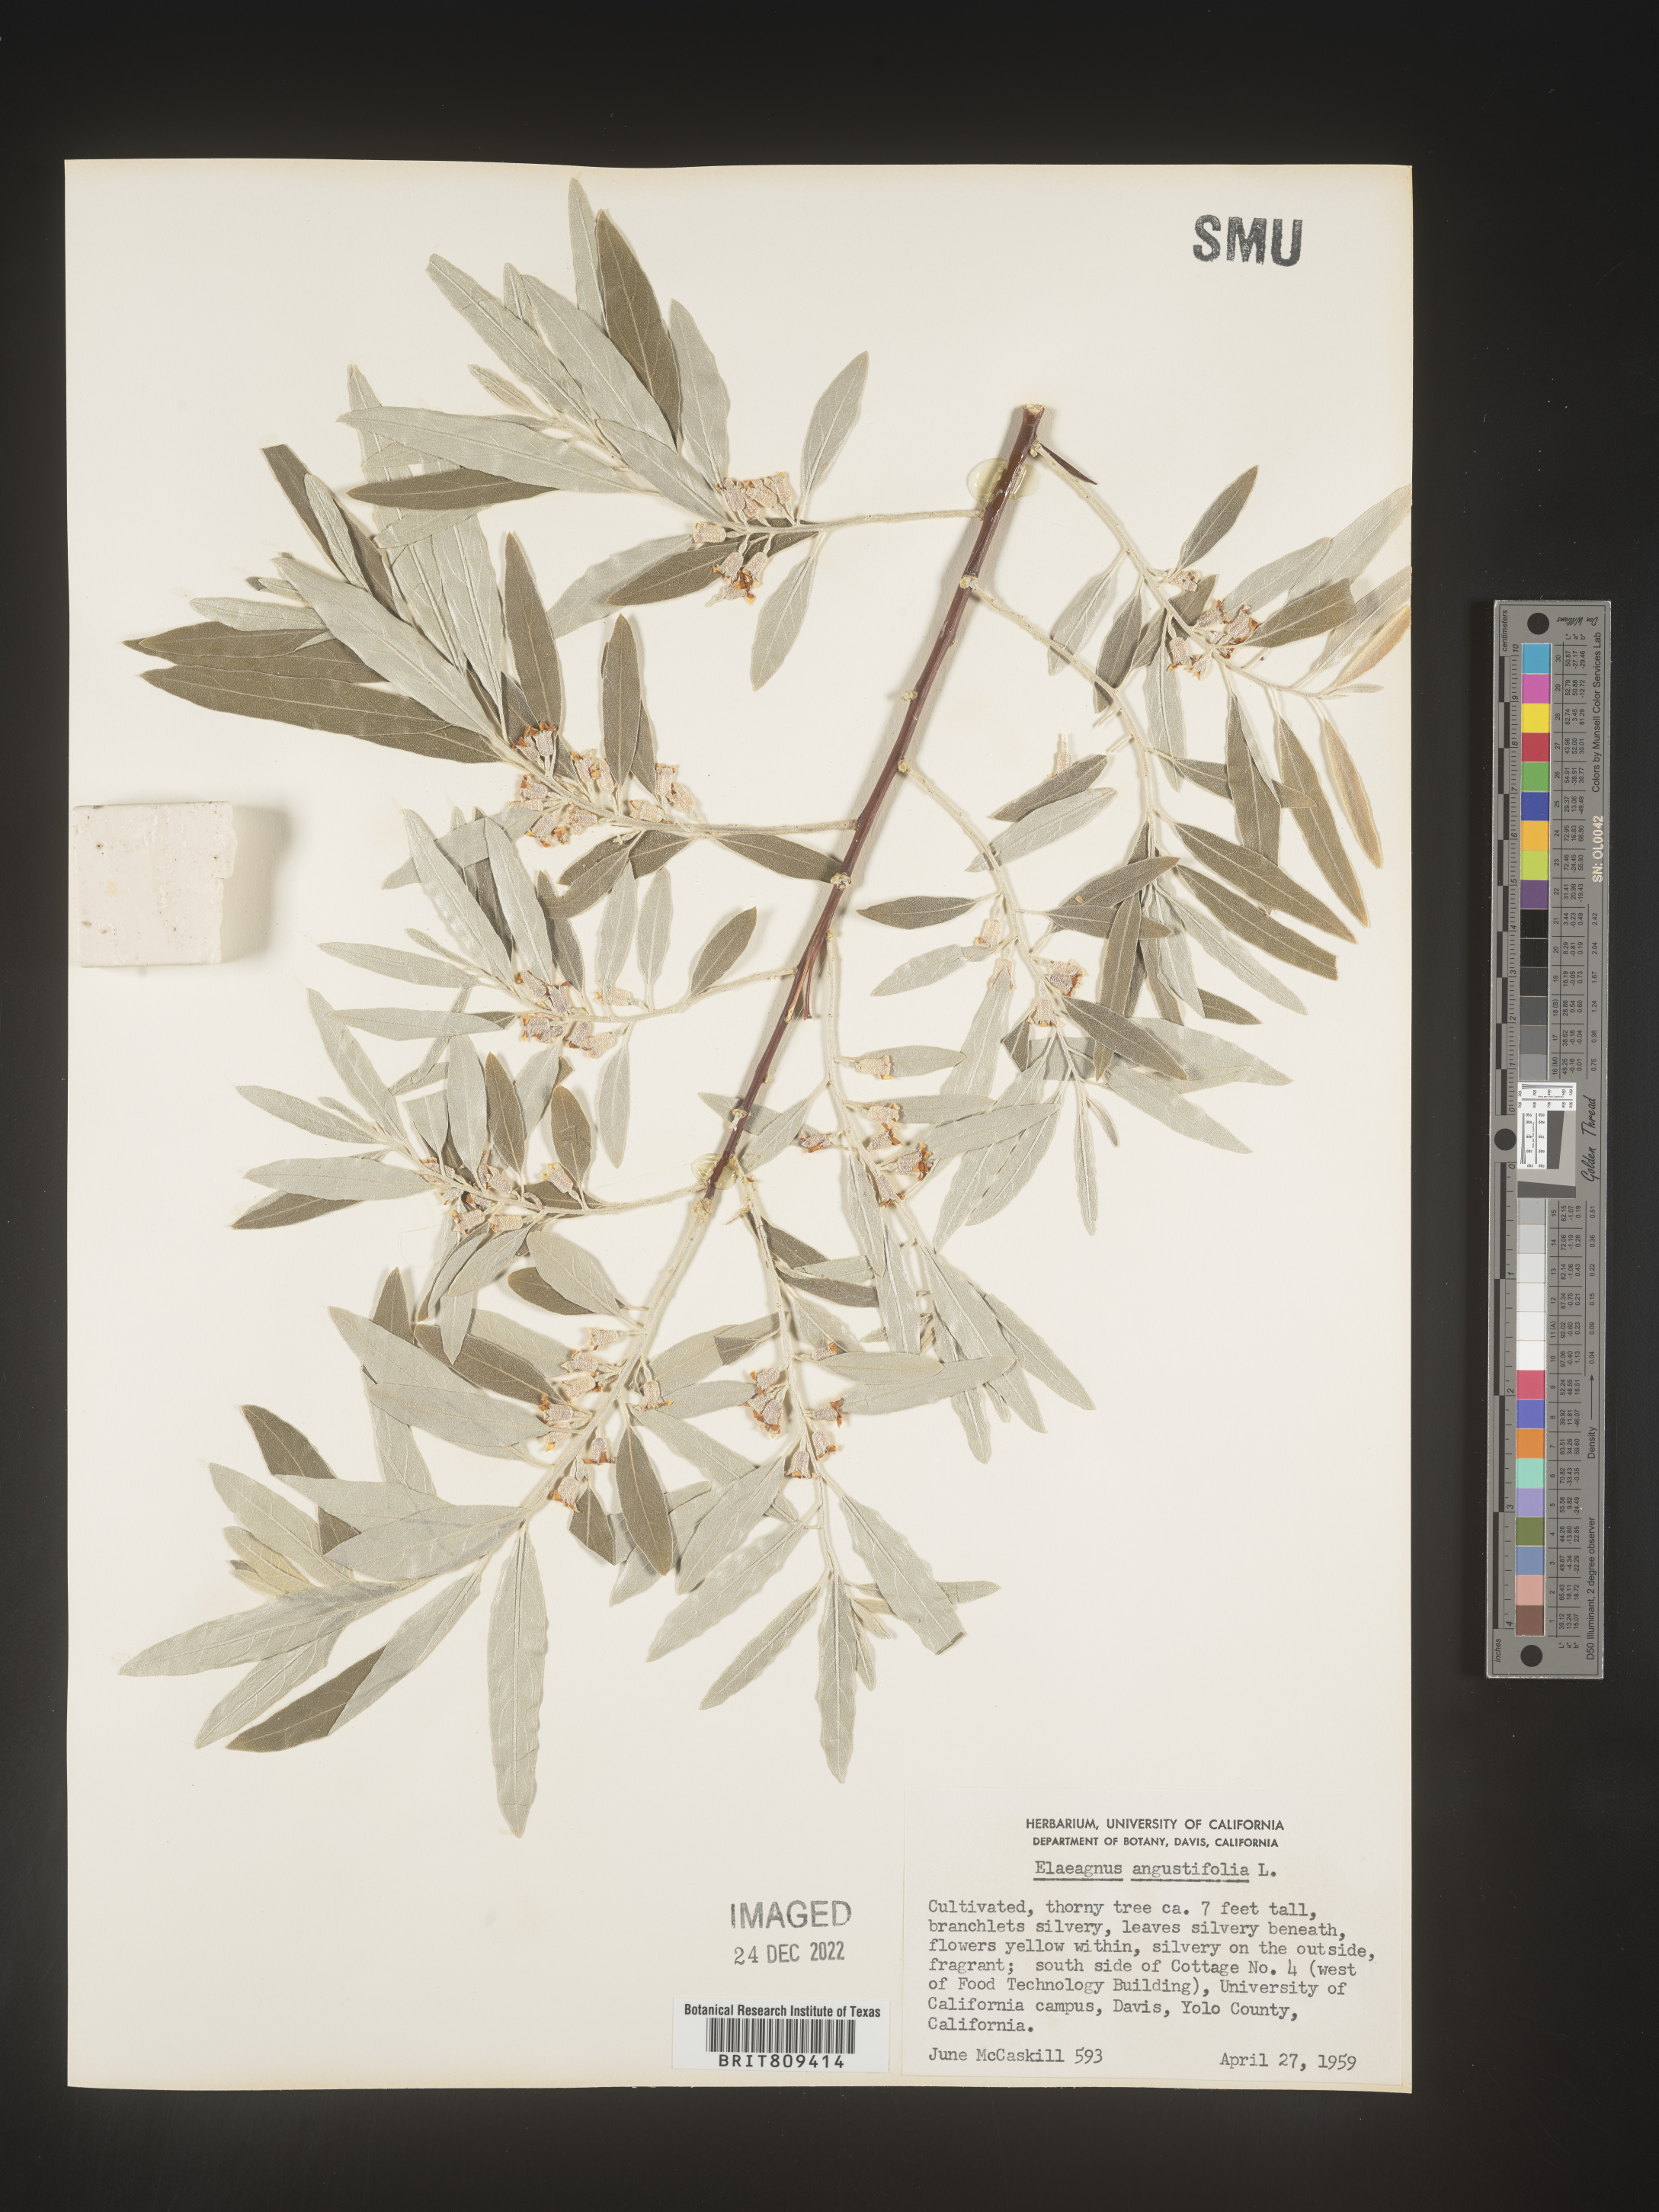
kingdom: Plantae
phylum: Tracheophyta
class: Magnoliopsida
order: Rosales
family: Elaeagnaceae
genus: Elaeagnus
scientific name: Elaeagnus
